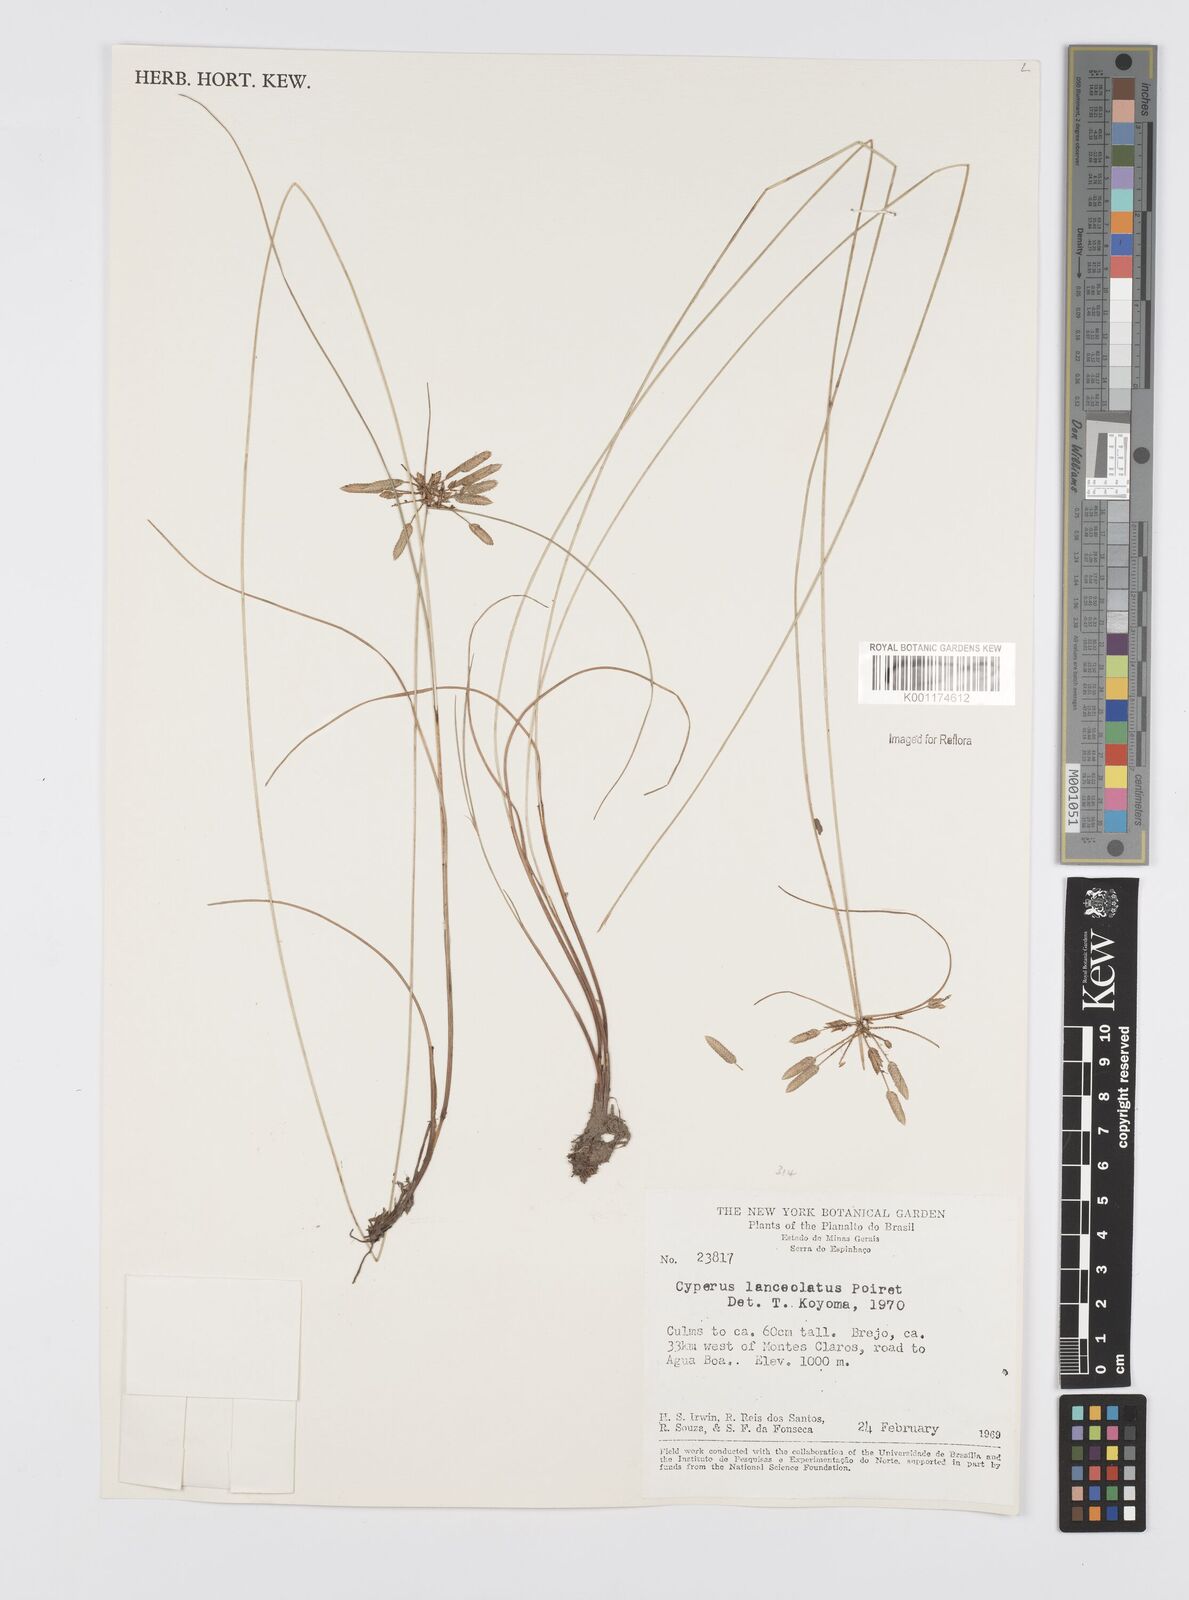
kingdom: Plantae
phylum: Tracheophyta
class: Liliopsida
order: Poales
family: Cyperaceae
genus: Cyperus
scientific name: Cyperus
